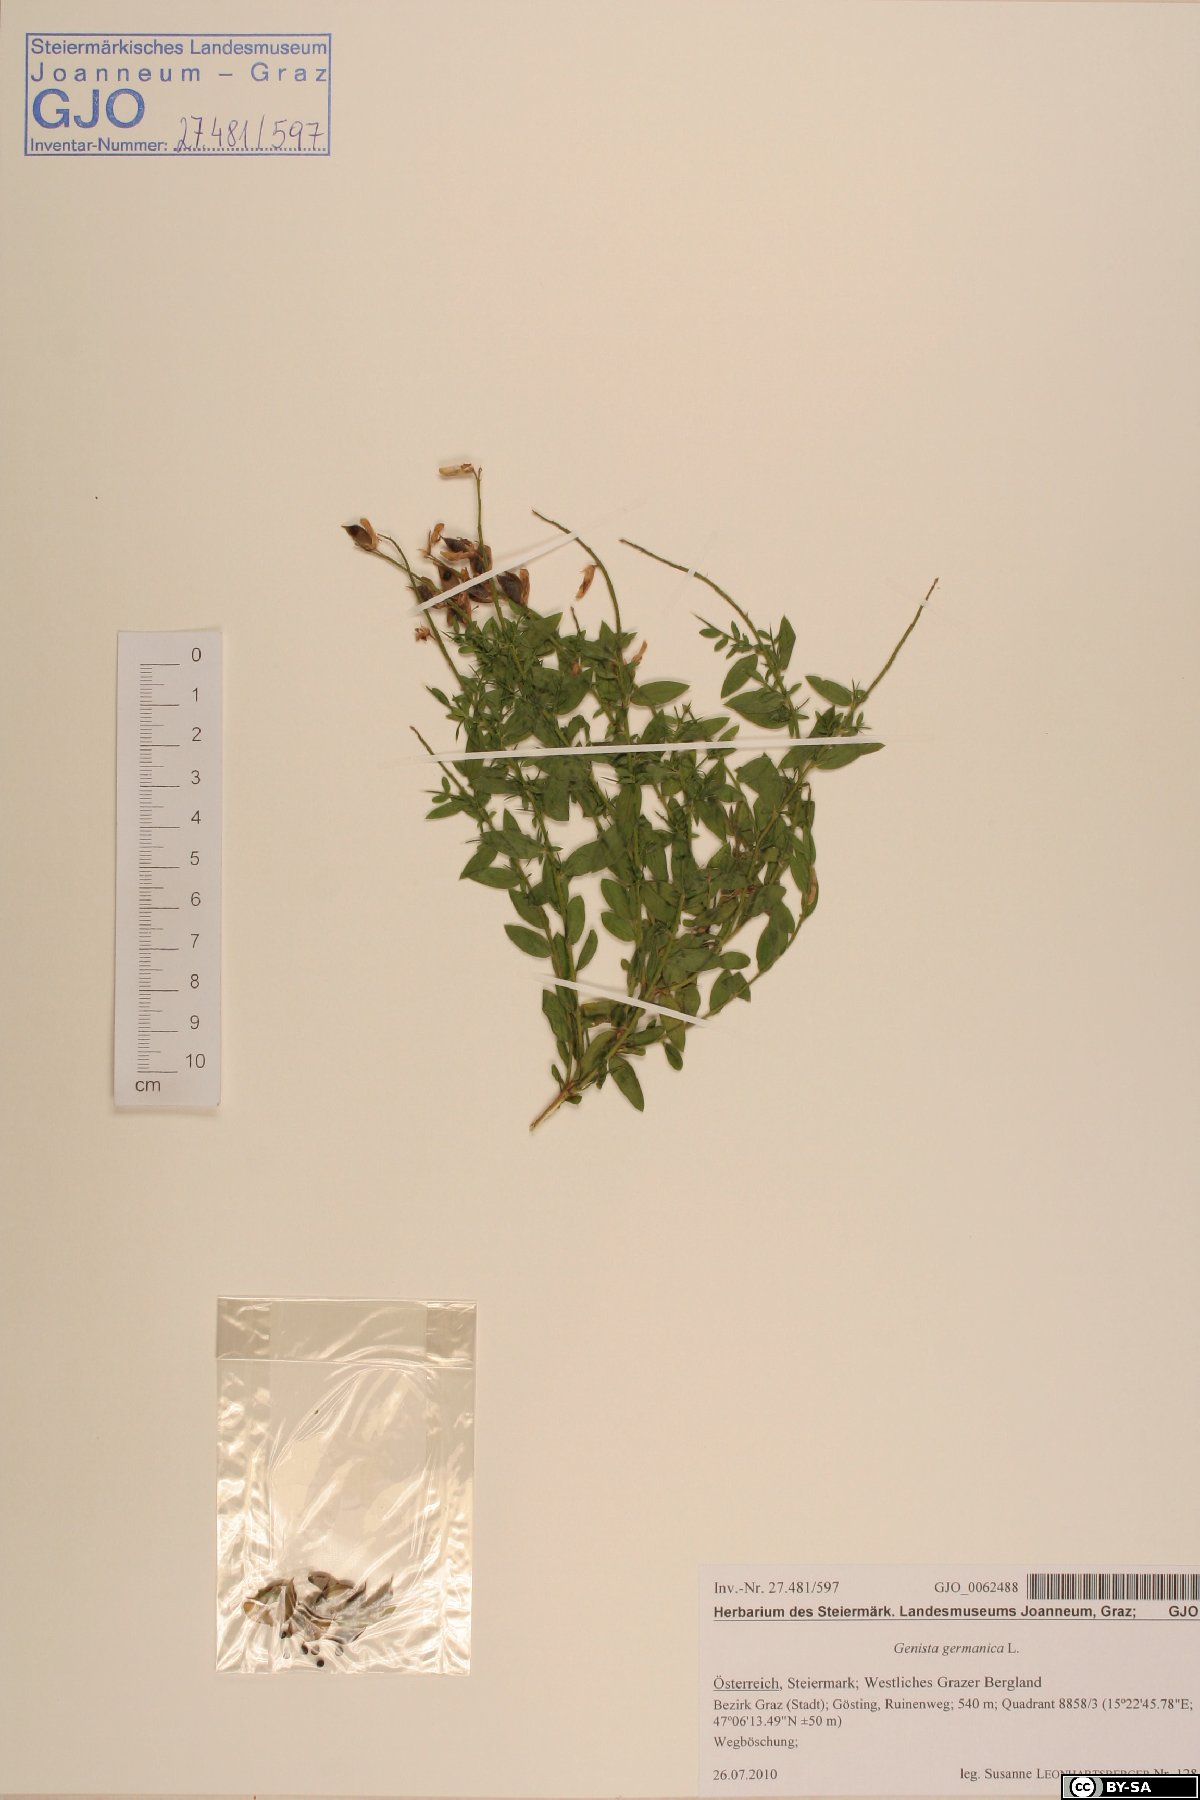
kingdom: Plantae
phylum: Tracheophyta
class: Magnoliopsida
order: Fabales
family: Fabaceae
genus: Genista
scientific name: Genista germanica
